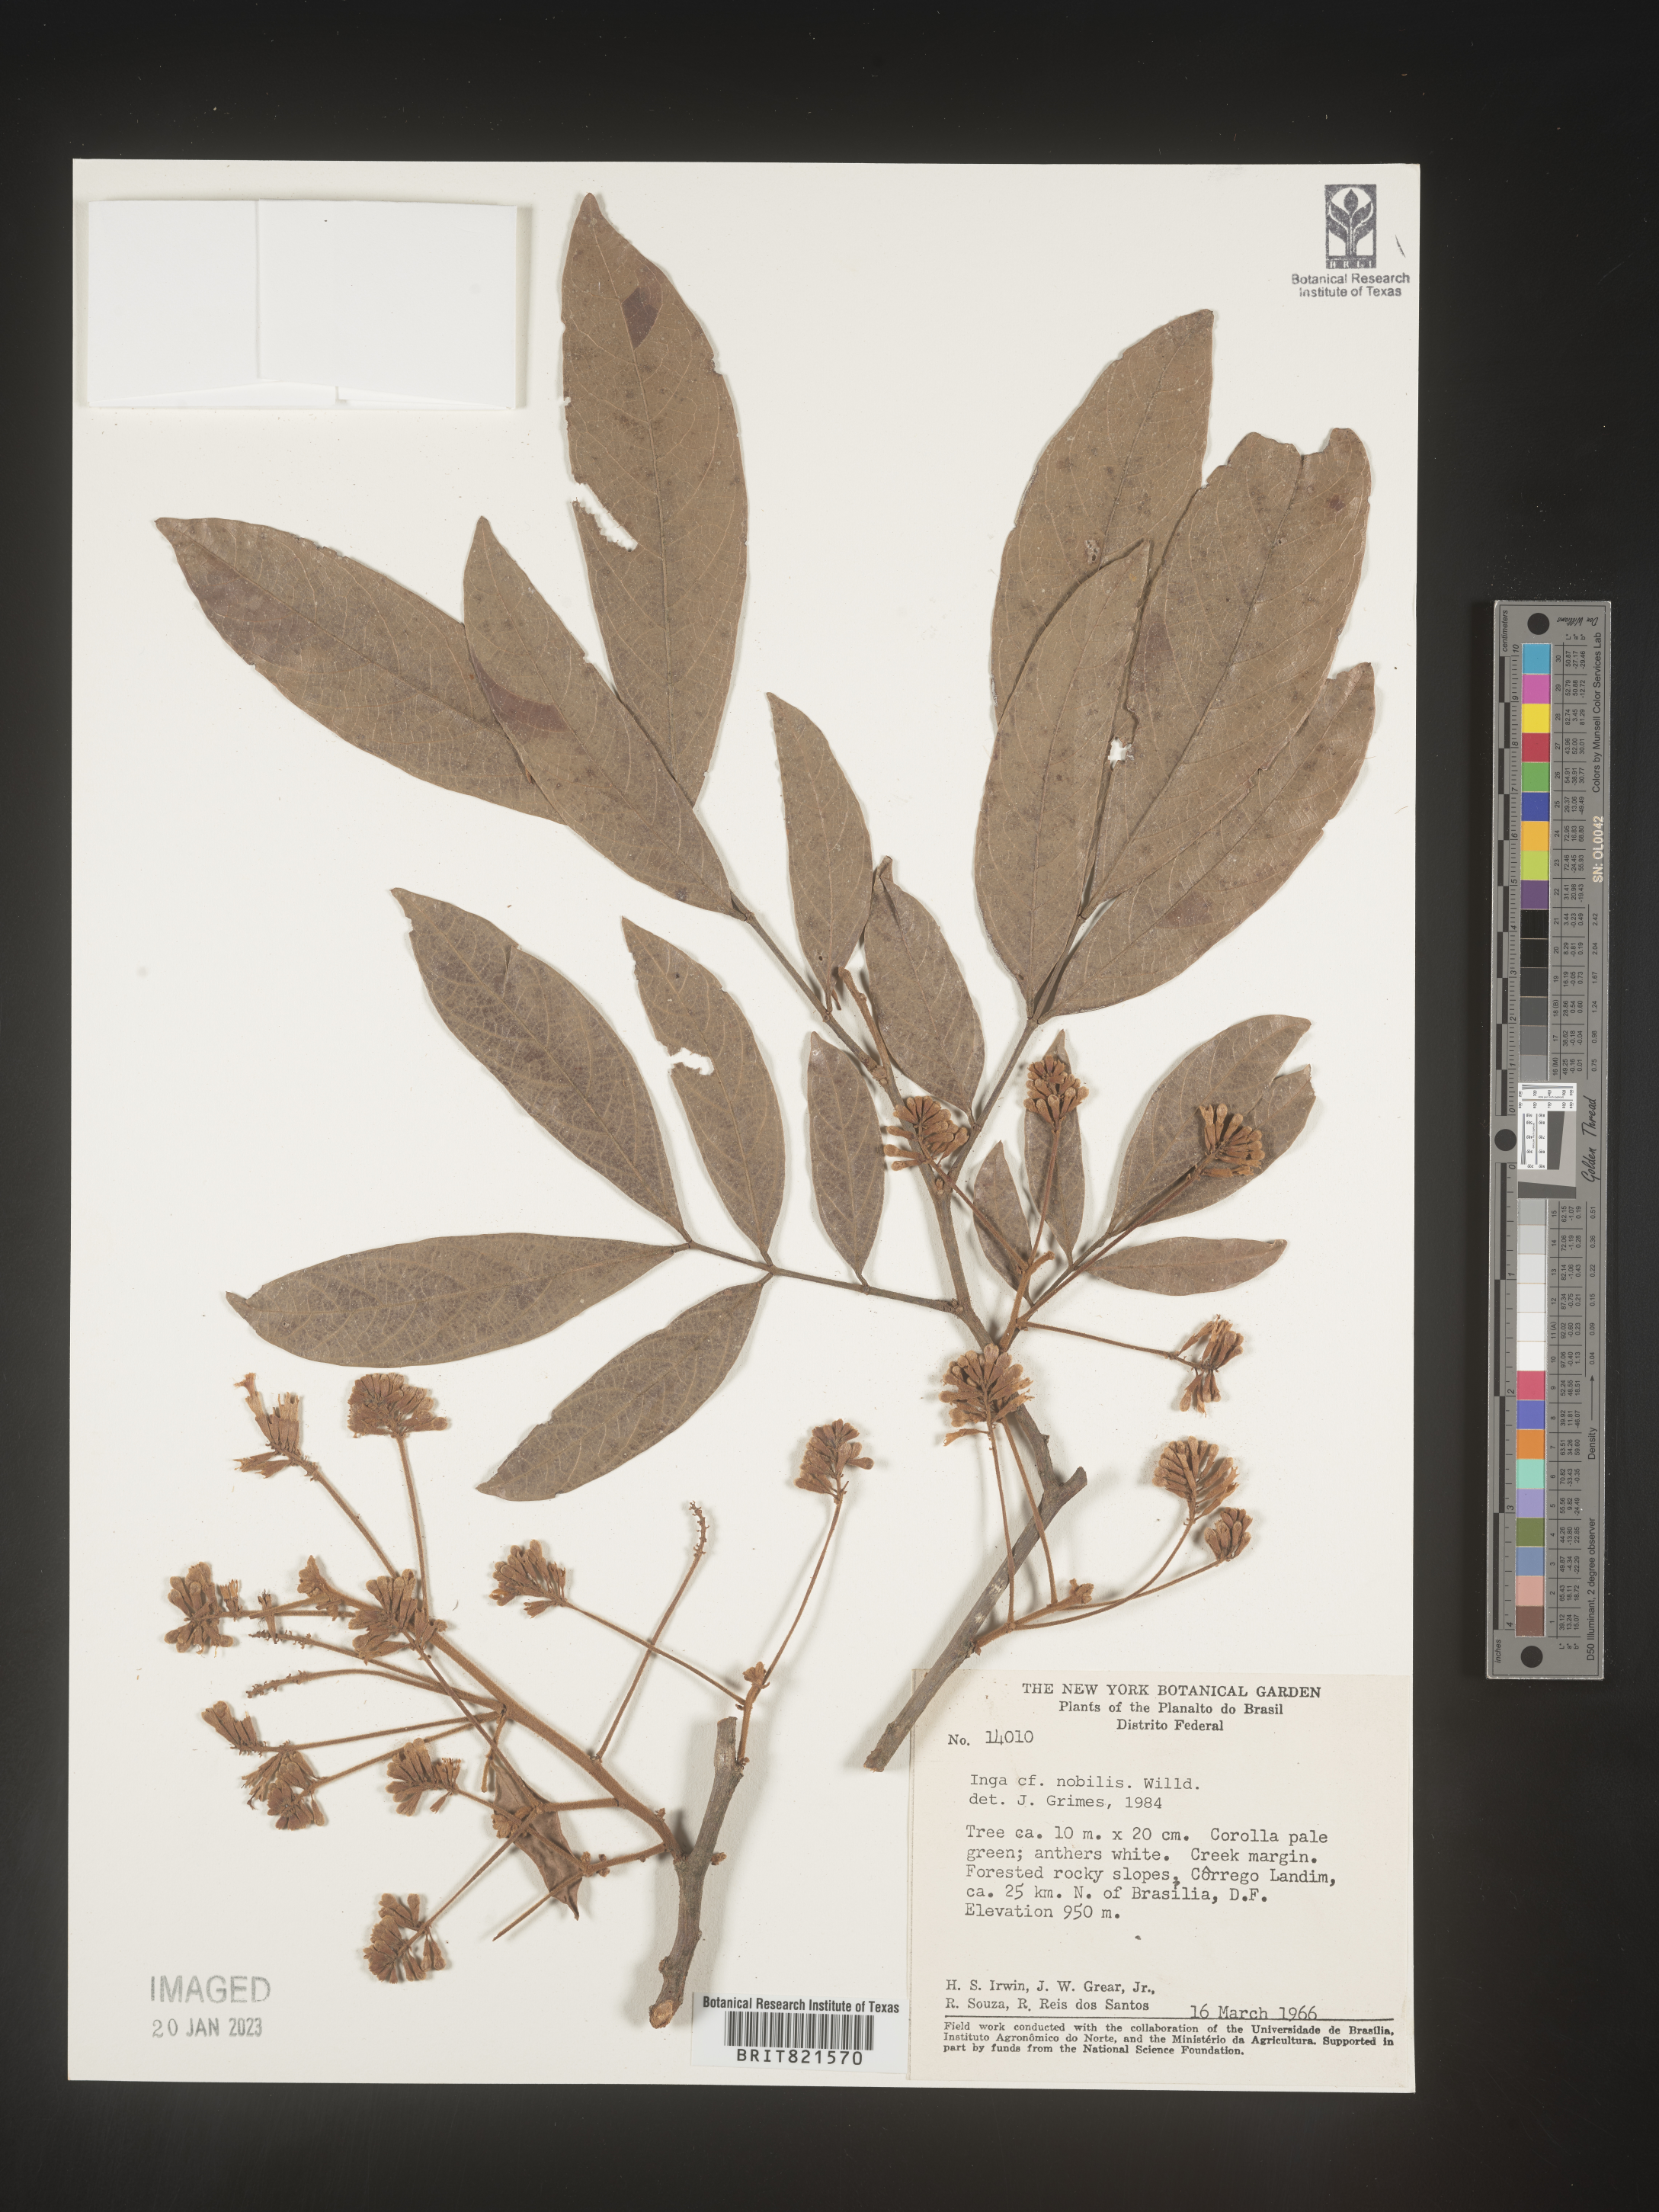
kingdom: Plantae
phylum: Tracheophyta
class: Magnoliopsida
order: Fabales
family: Fabaceae
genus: Inga
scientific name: Inga
